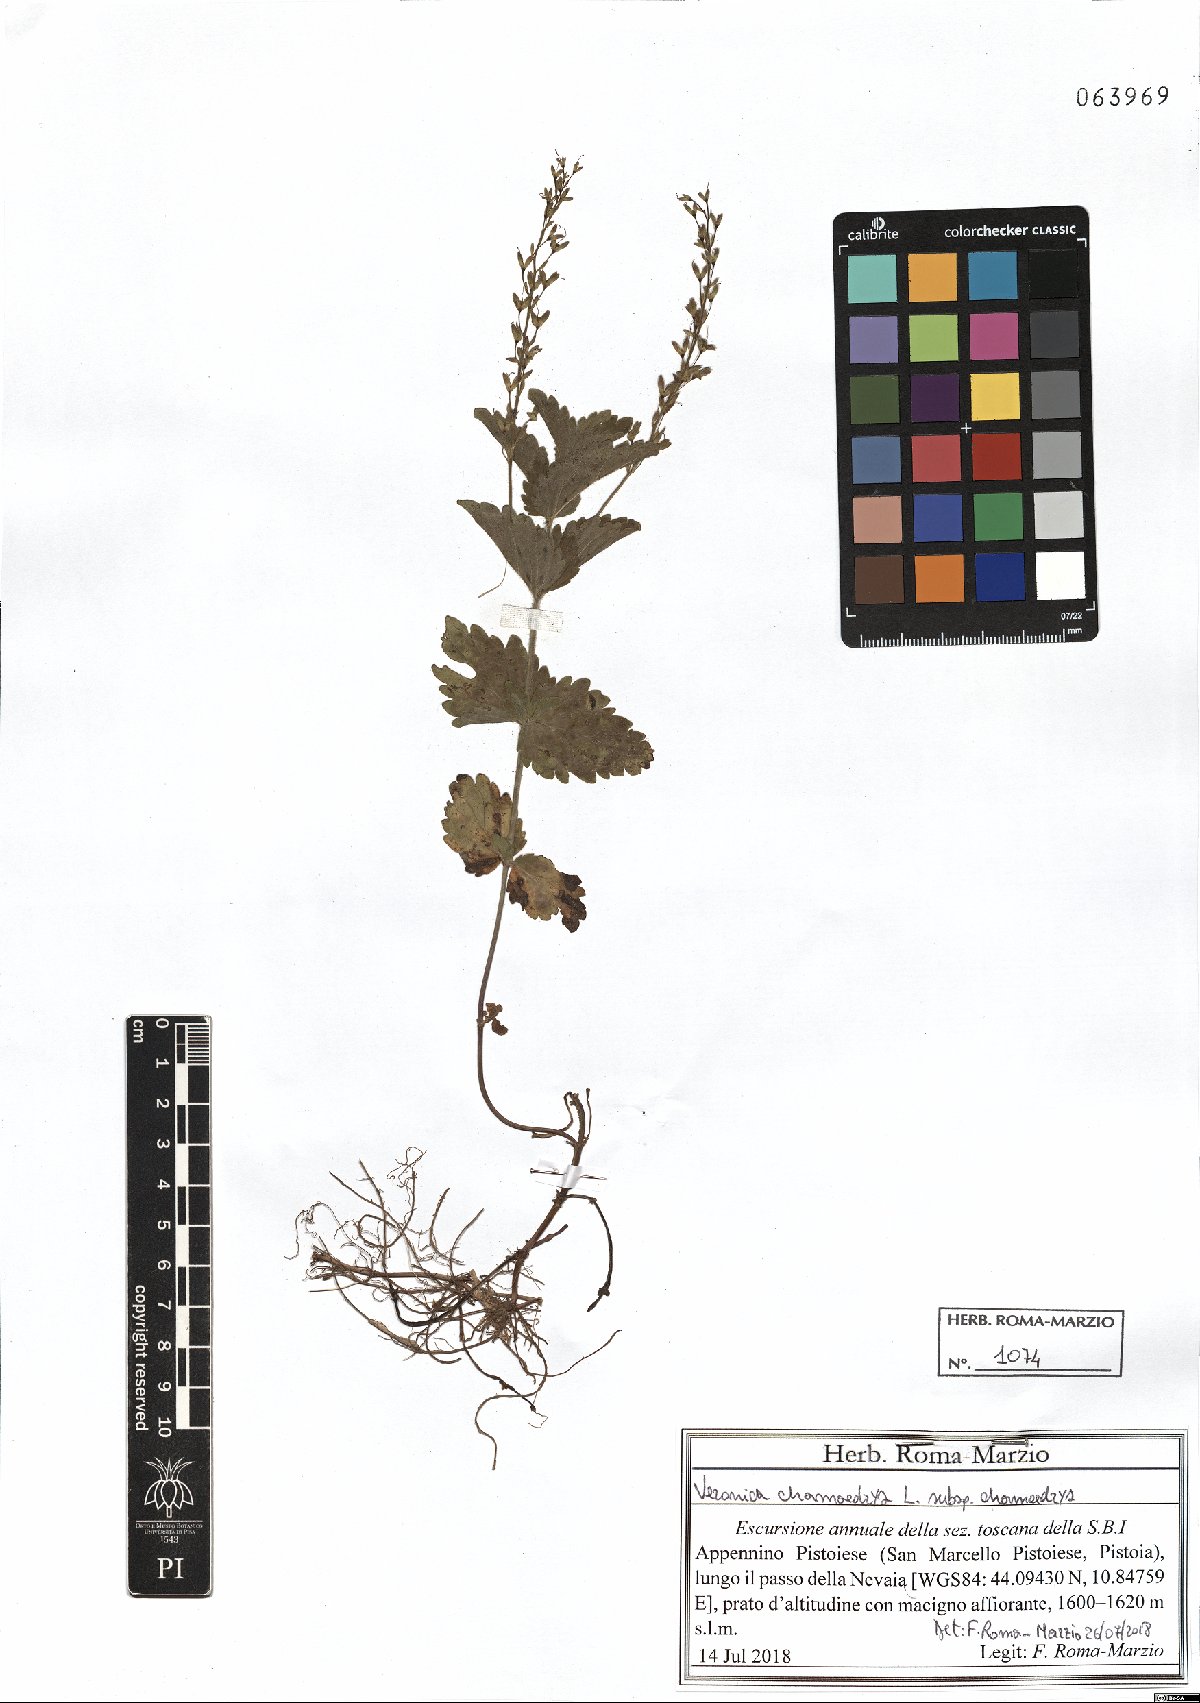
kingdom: Plantae
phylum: Tracheophyta
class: Magnoliopsida
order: Lamiales
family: Plantaginaceae
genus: Veronica
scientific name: Veronica chamaedrys
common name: Germander speedwell
